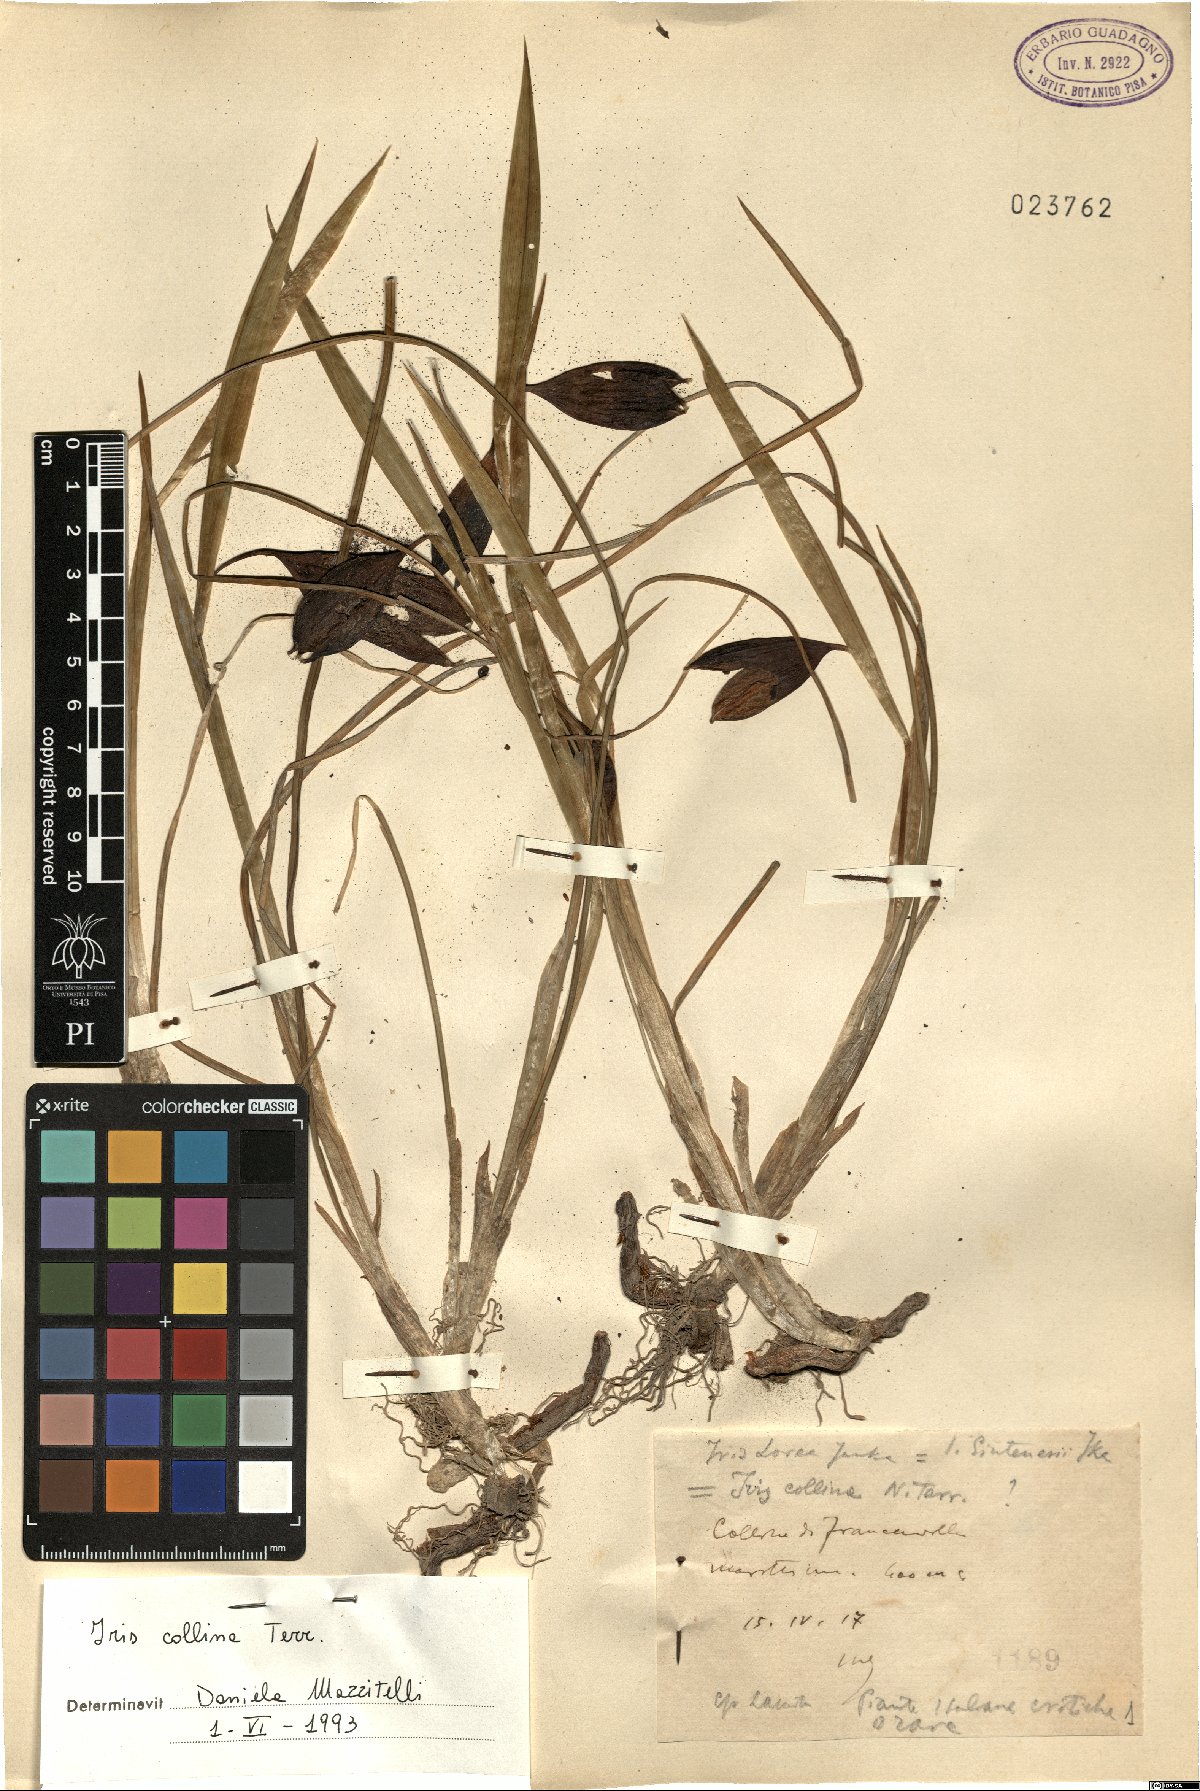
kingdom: Plantae
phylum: Tracheophyta
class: Liliopsida
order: Asparagales
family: Iridaceae
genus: Iris
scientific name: Iris sintenisii
